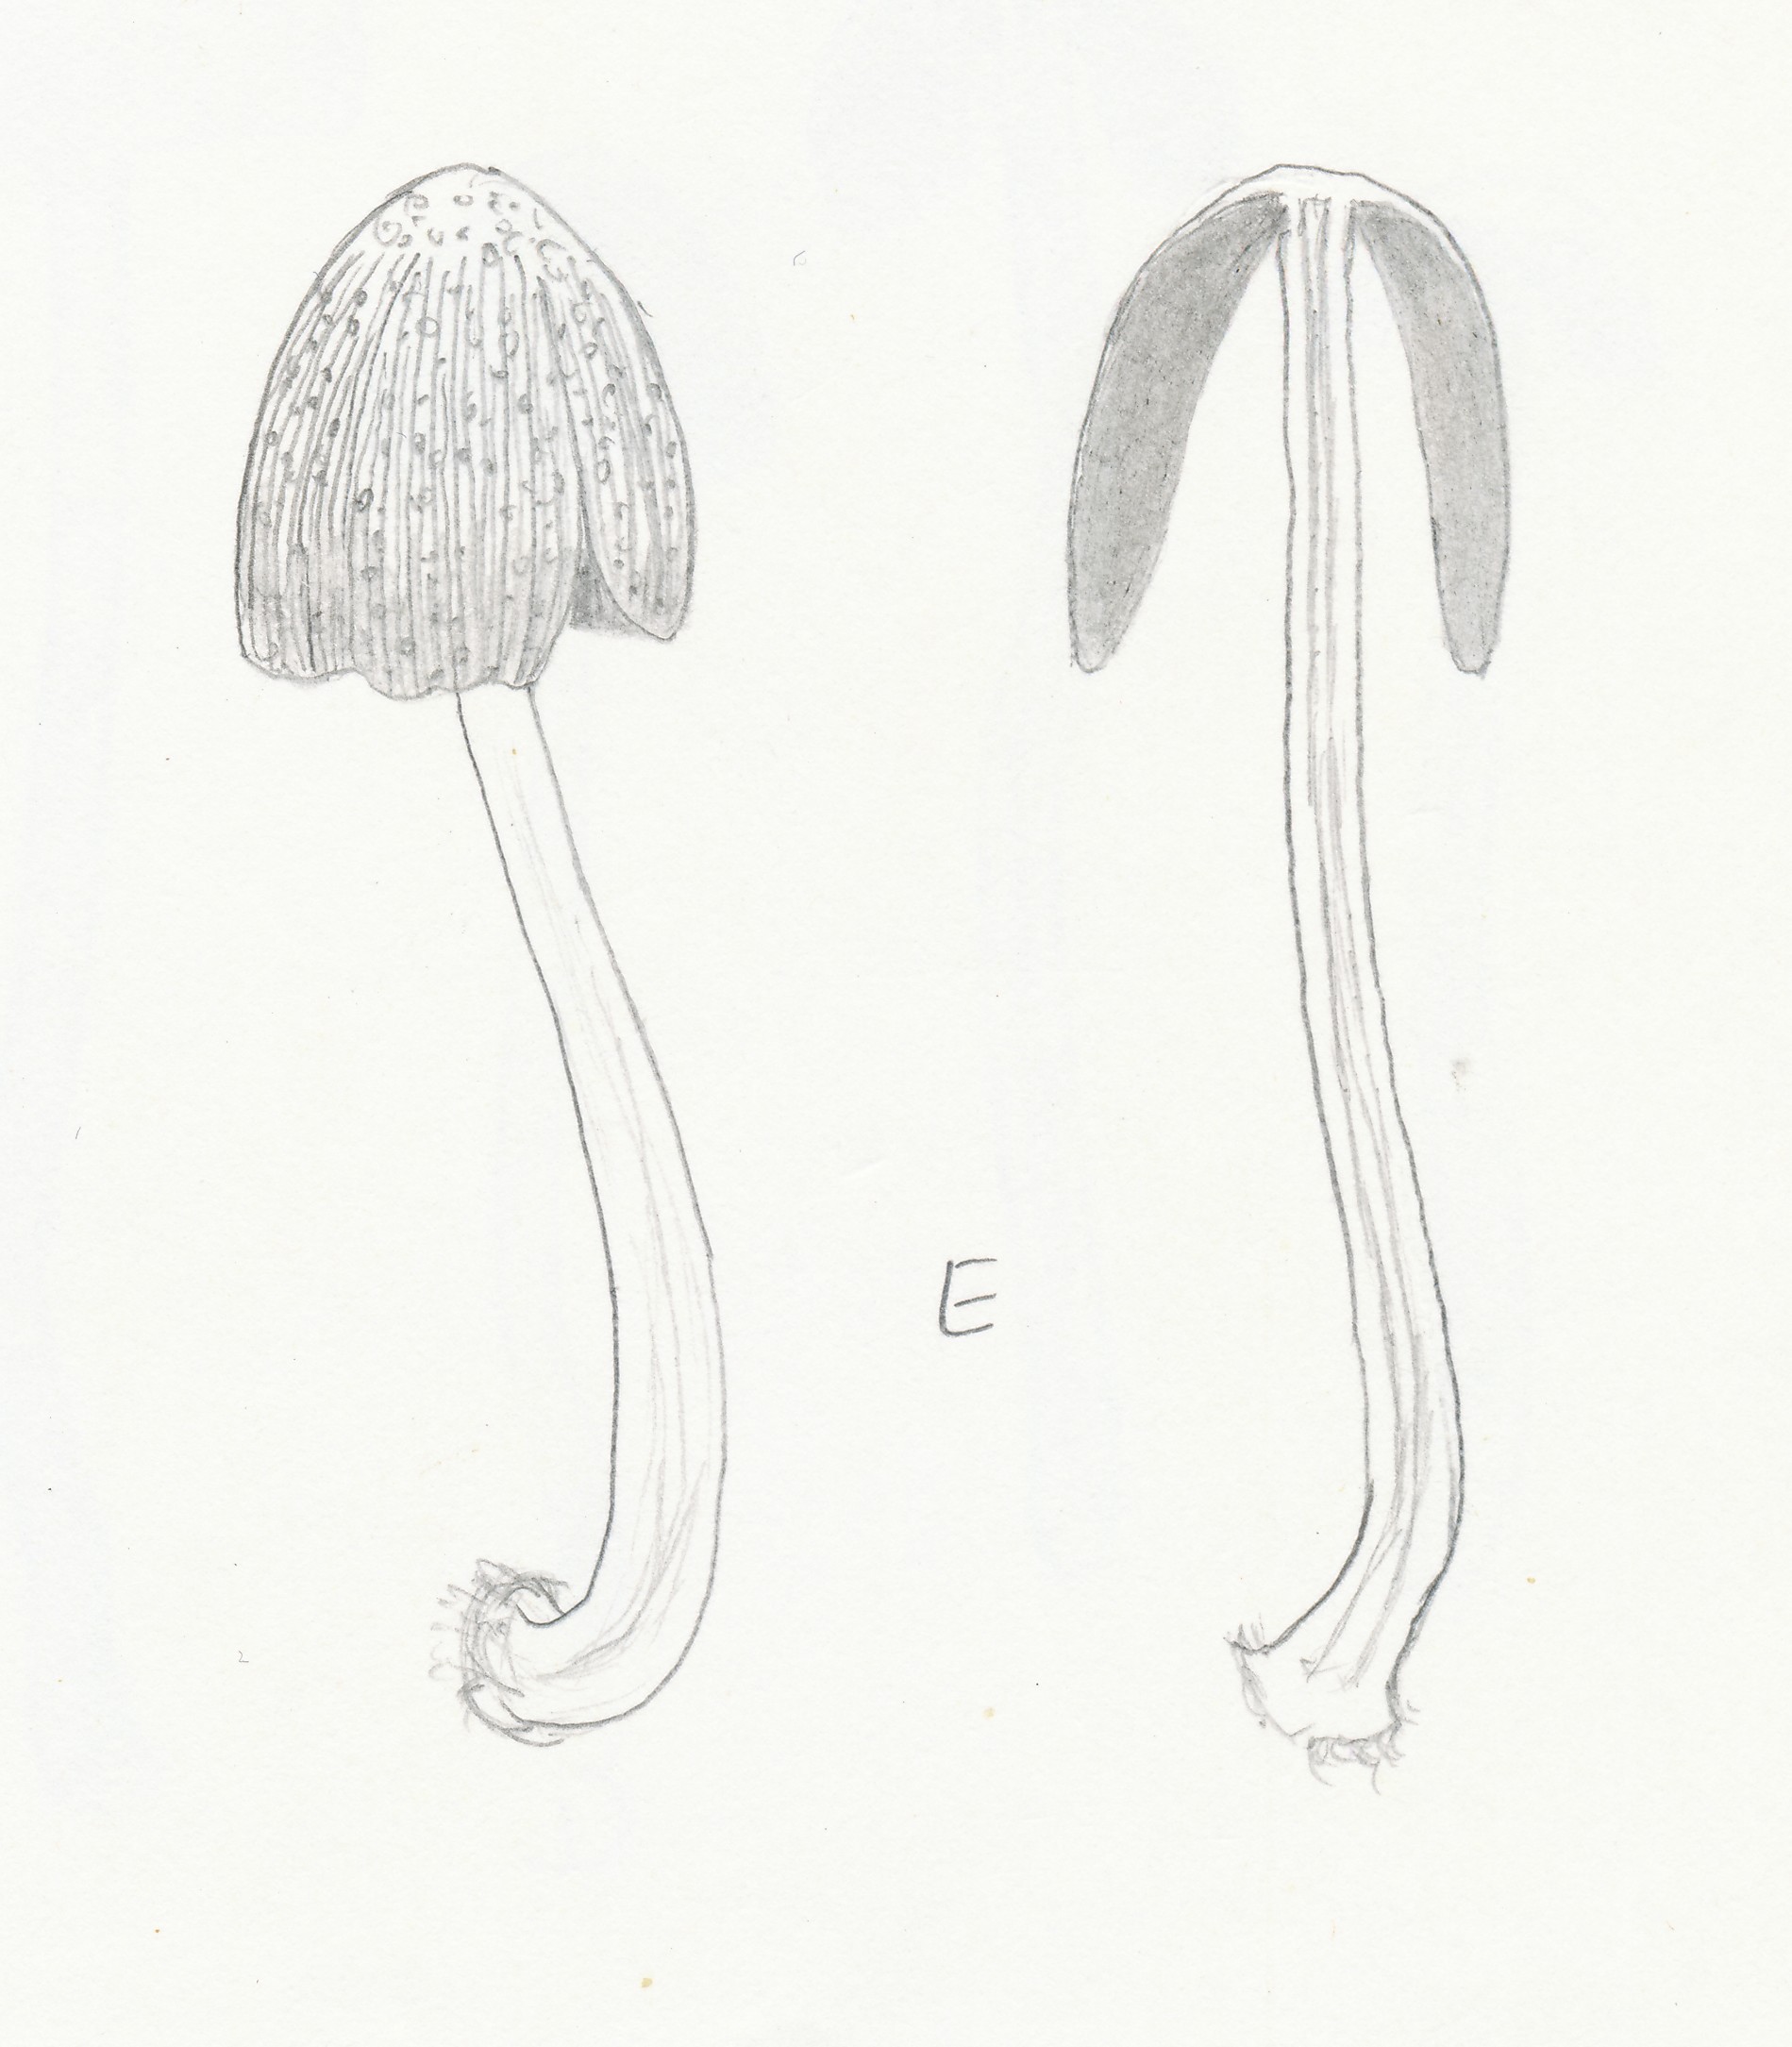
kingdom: Fungi
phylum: Basidiomycota
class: Agaricomycetes
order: Agaricales
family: Psathyrellaceae
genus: Coprinellus
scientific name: Coprinellus xanthothrix
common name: gultrådet blækhat
